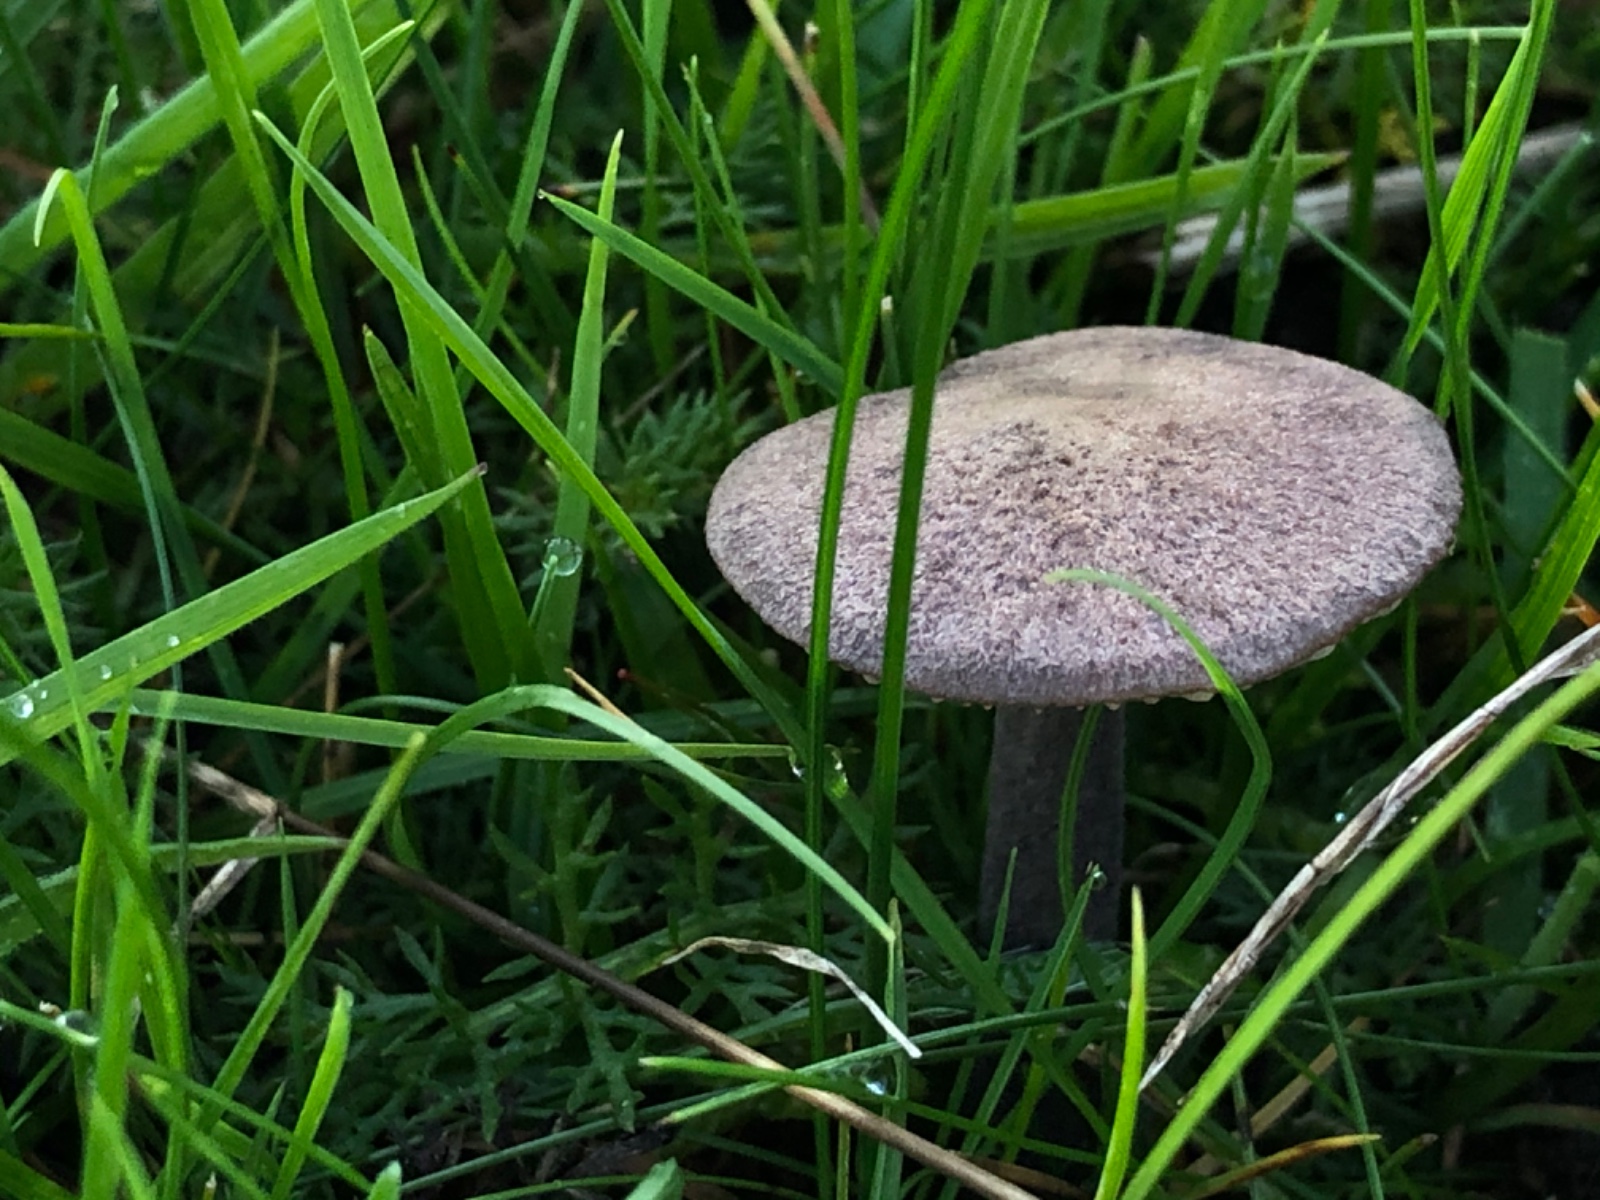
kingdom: Fungi
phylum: Basidiomycota
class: Agaricomycetes
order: Agaricales
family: Entolomataceae
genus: Entoloma
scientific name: Entoloma griseocyaneum
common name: gråblå rødblad
